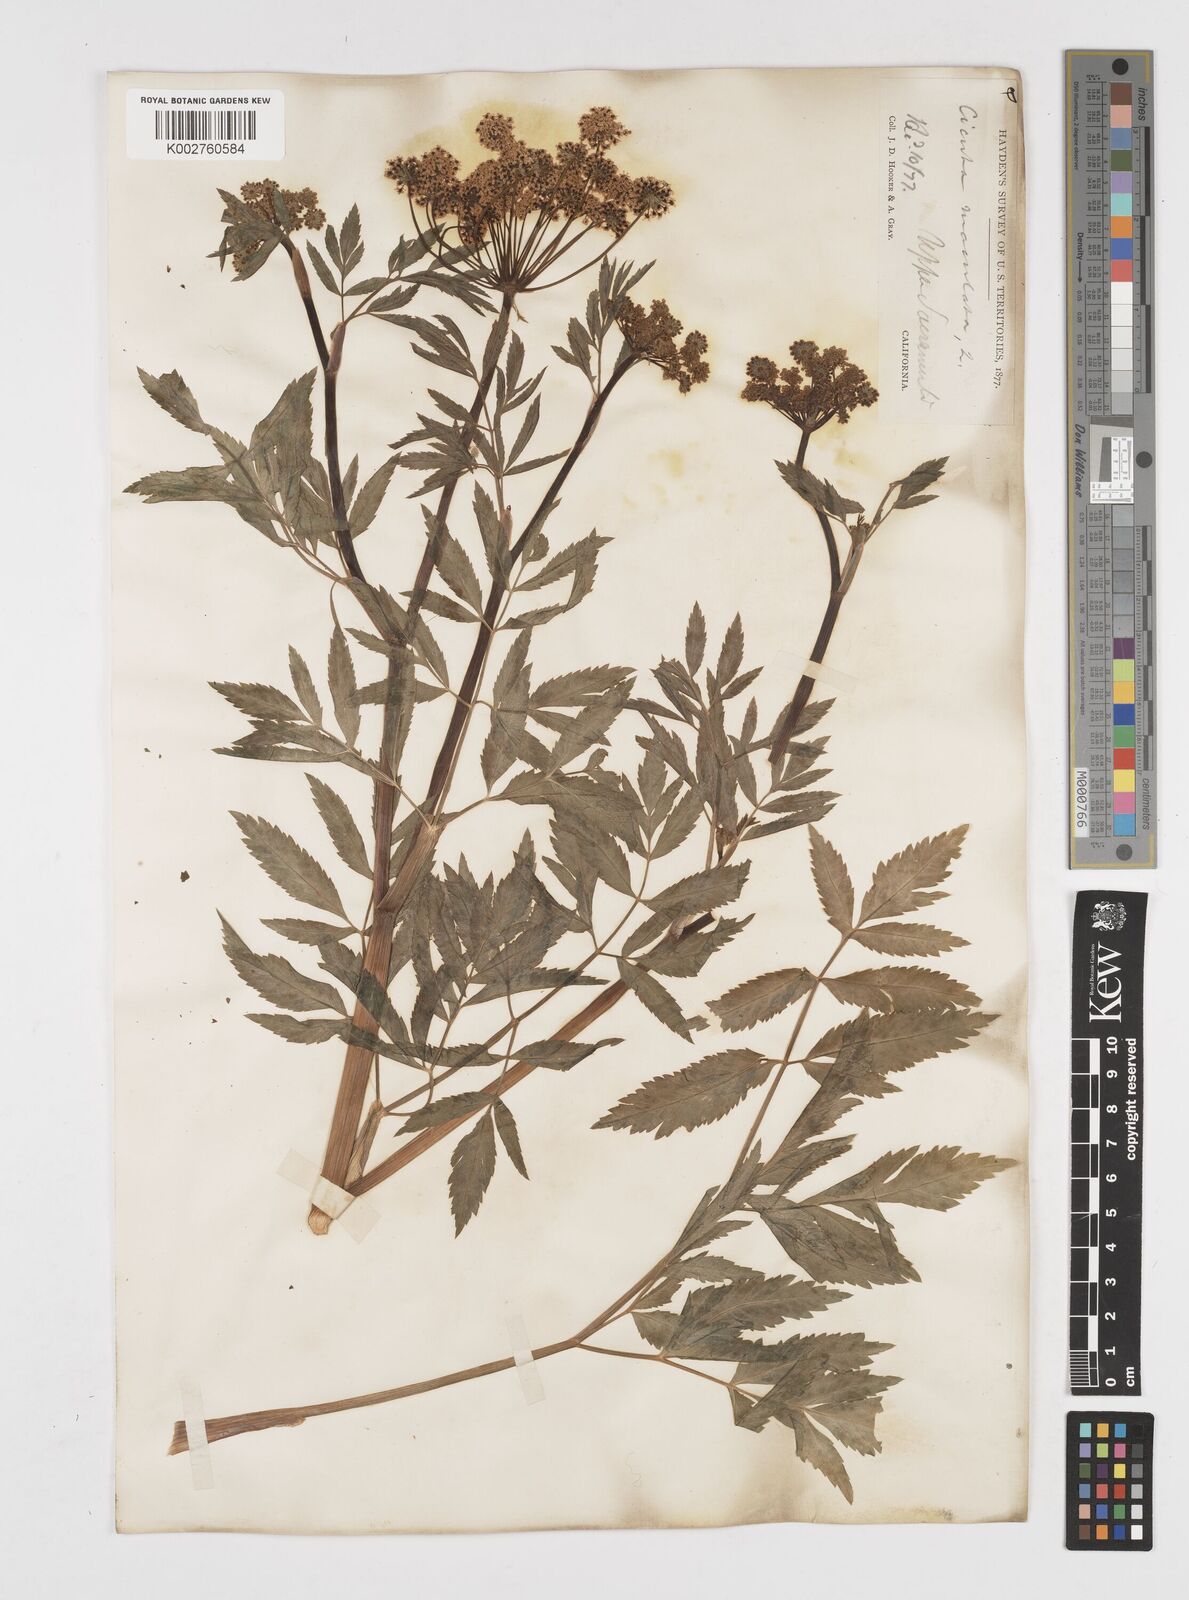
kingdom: Plantae
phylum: Tracheophyta
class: Magnoliopsida
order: Apiales
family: Apiaceae
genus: Cicuta
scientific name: Cicuta douglasii
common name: Western water-hemlock
